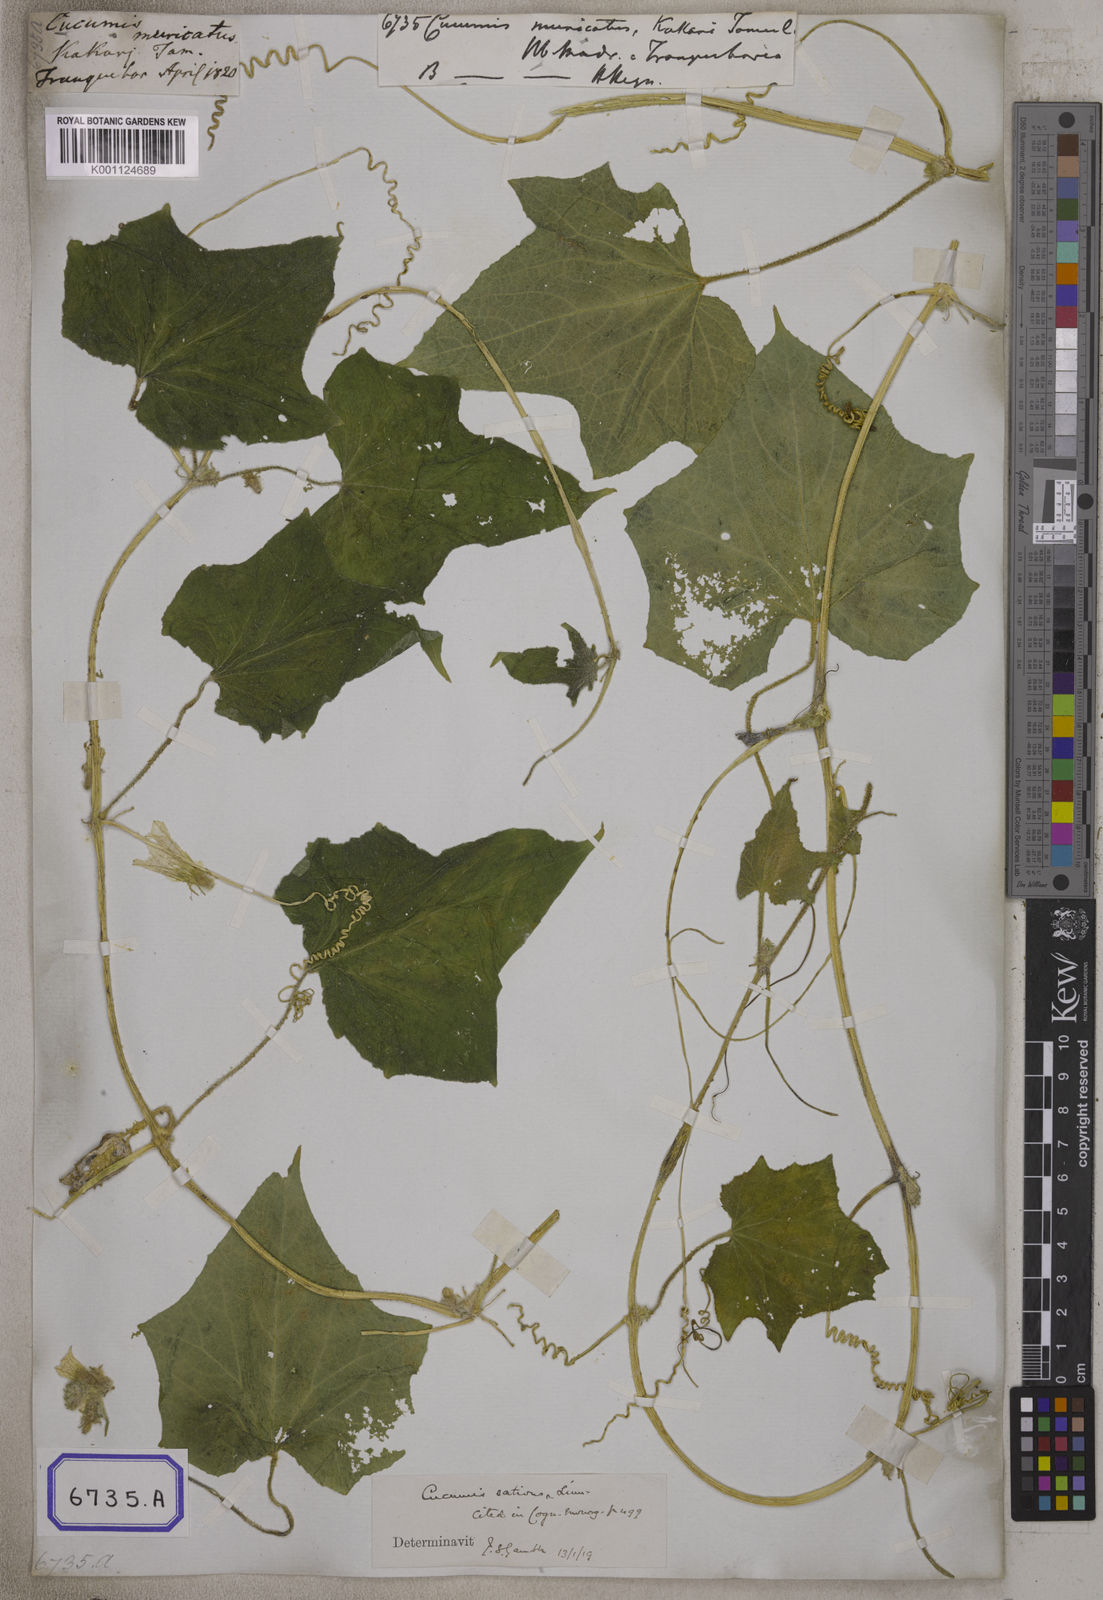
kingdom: Plantae
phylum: Tracheophyta
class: Magnoliopsida
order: Cucurbitales
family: Cucurbitaceae
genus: Cucumis
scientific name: Cucumis sativus
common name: Cucumber
